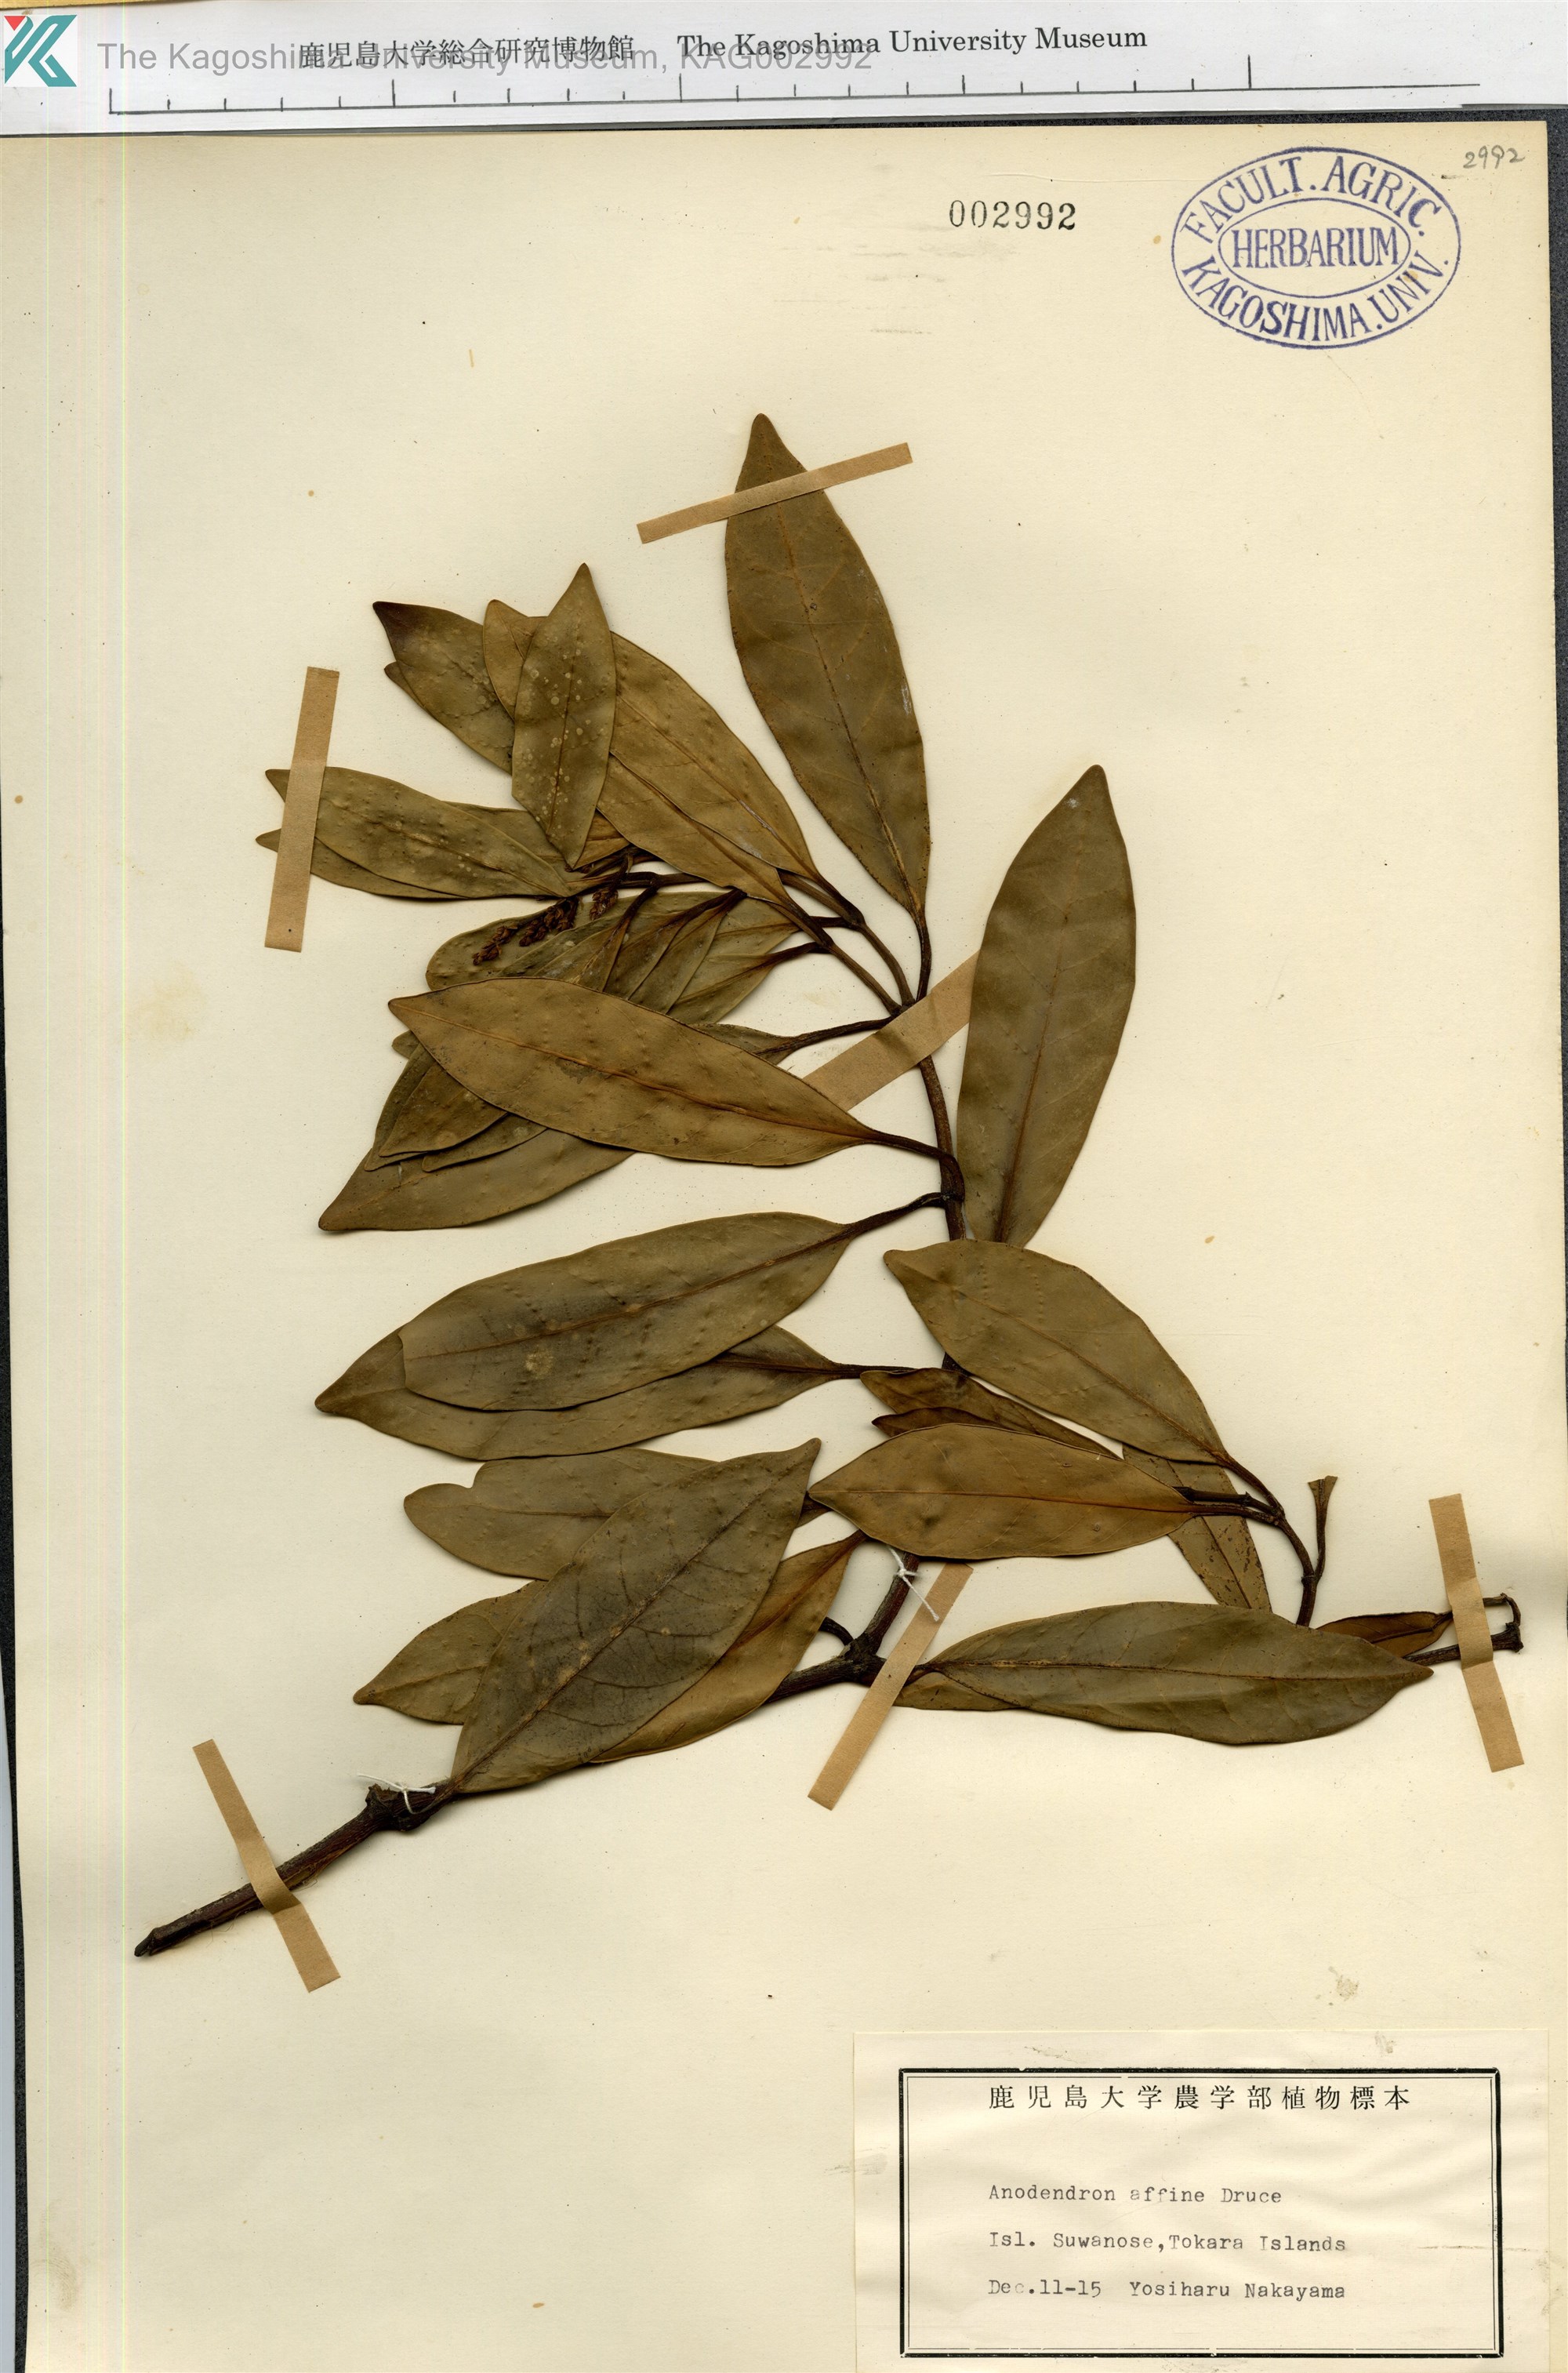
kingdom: Plantae
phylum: Tracheophyta
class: Magnoliopsida
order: Gentianales
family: Apocynaceae
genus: Anodendron
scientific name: Anodendron affine
